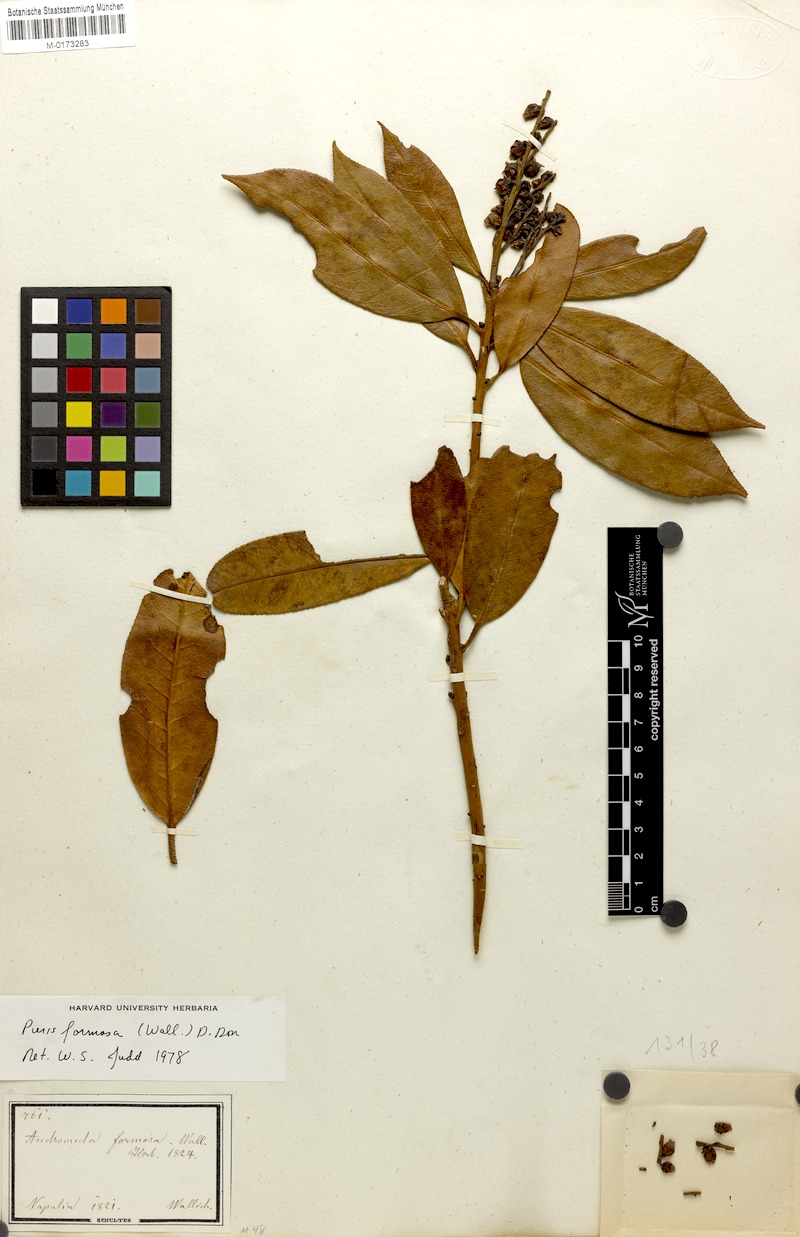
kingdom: Plantae
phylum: Tracheophyta
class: Magnoliopsida
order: Ericales
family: Ericaceae
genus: Pieris
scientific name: Pieris formosa
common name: Formosan pieris
